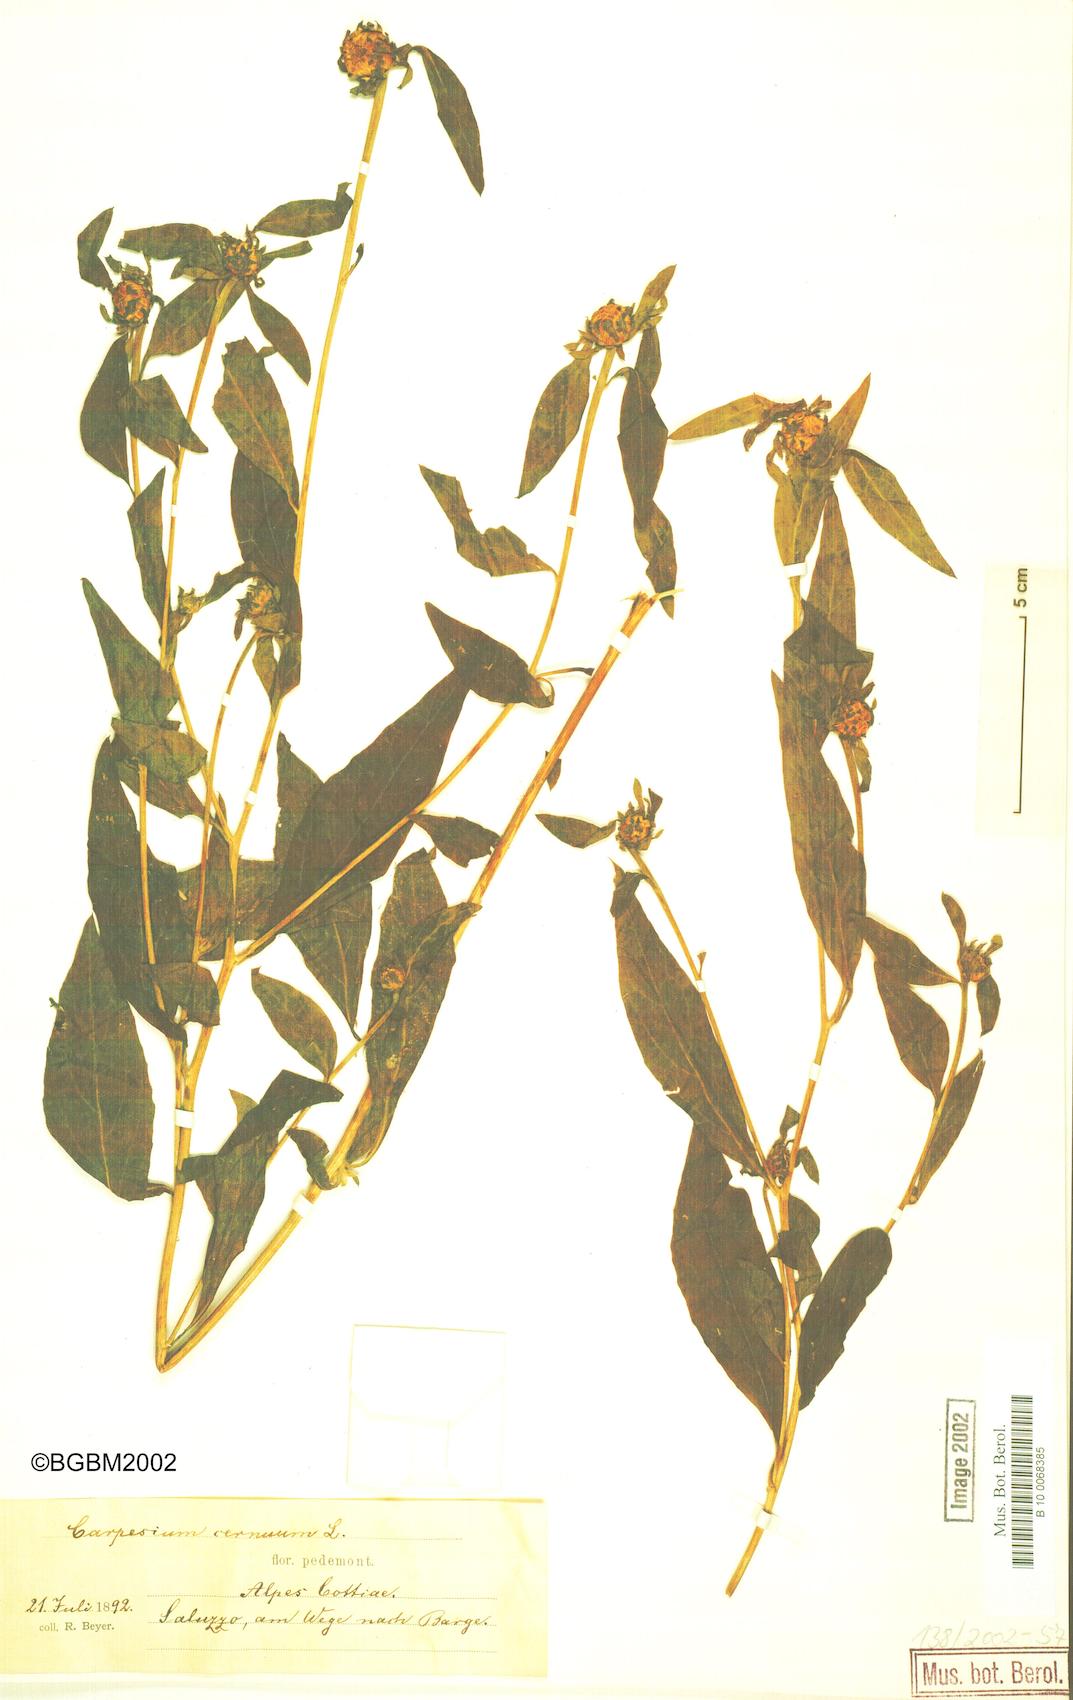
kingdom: Plantae
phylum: Tracheophyta
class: Magnoliopsida
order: Asterales
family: Asteraceae
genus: Carpesium
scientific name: Carpesium cernuum
